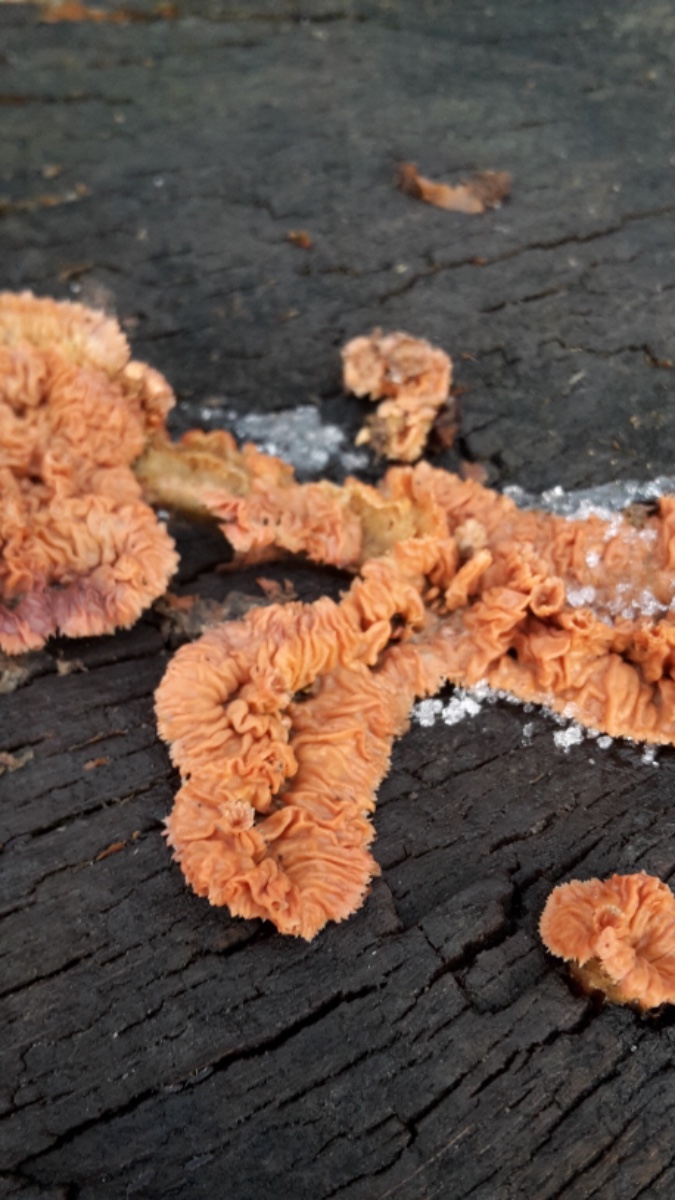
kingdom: Fungi
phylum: Basidiomycota
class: Agaricomycetes
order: Polyporales
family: Meruliaceae
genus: Phlebia
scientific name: Phlebia tremellosa
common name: bævrende åresvamp
